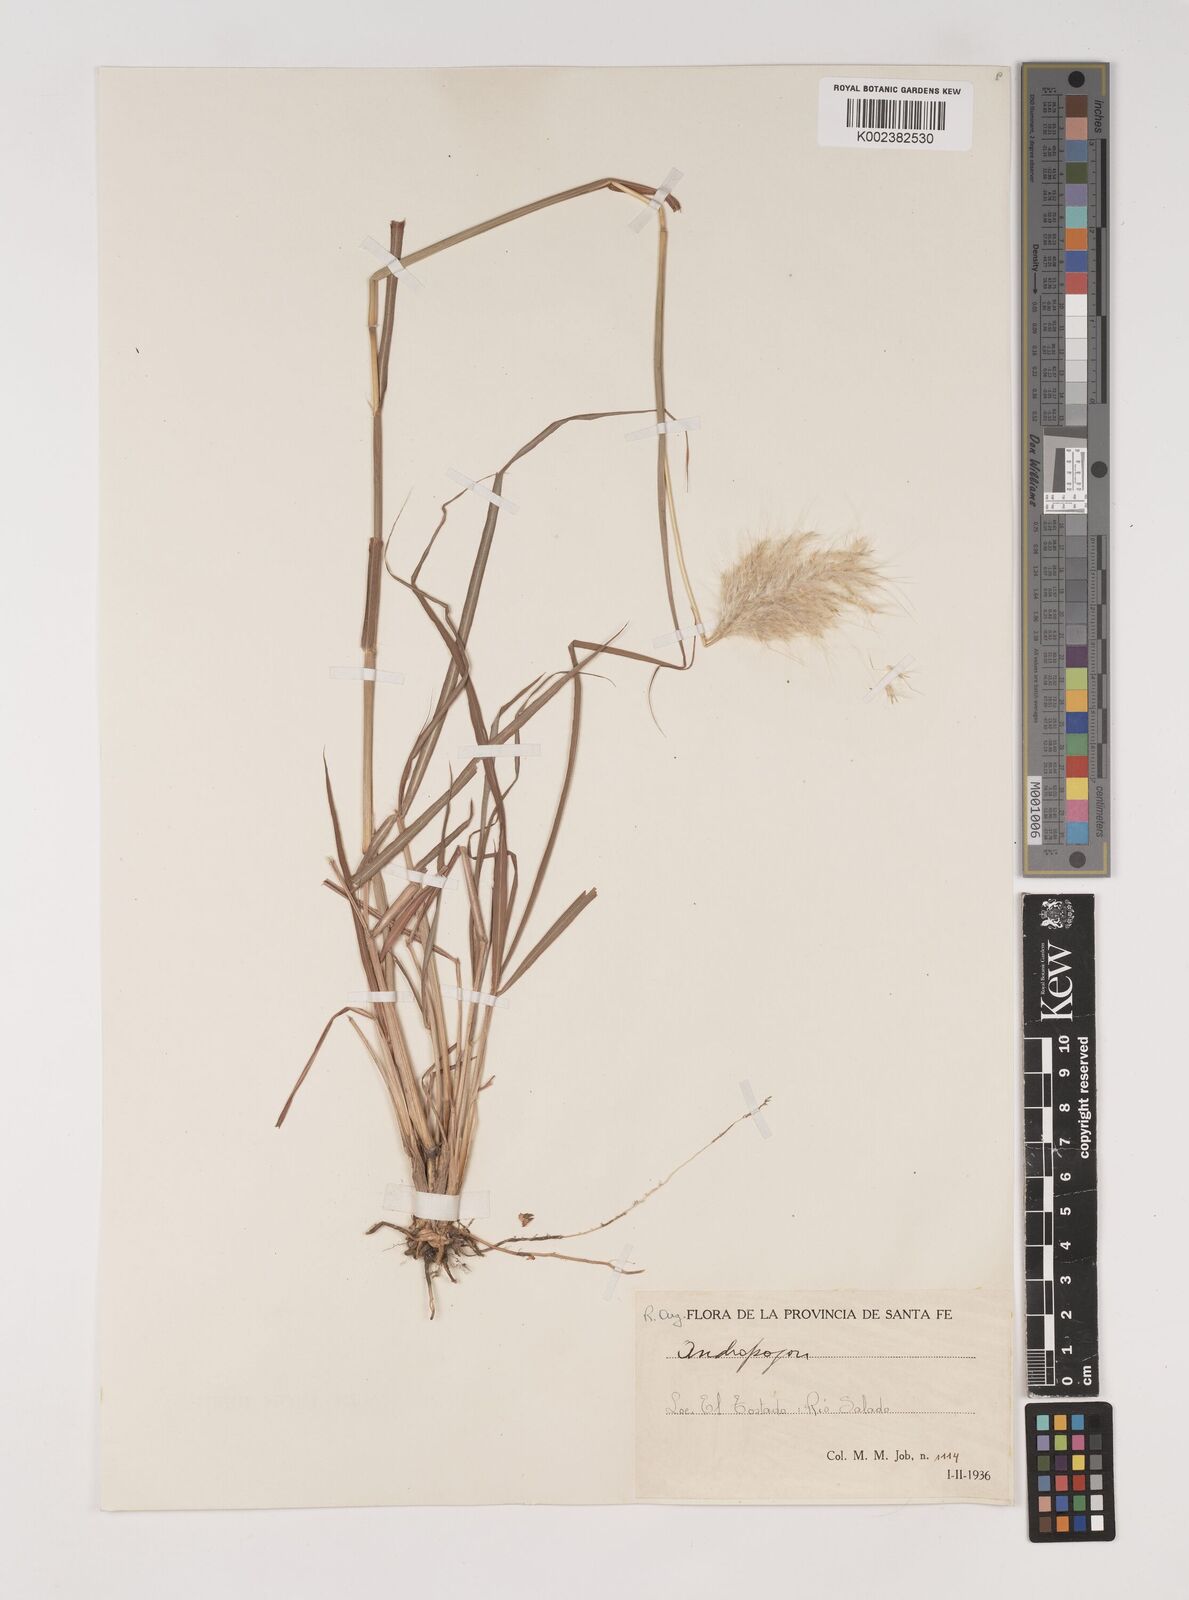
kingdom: Plantae
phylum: Tracheophyta
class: Liliopsida
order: Poales
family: Poaceae
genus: Bothriochloa
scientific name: Bothriochloa saccharoides
